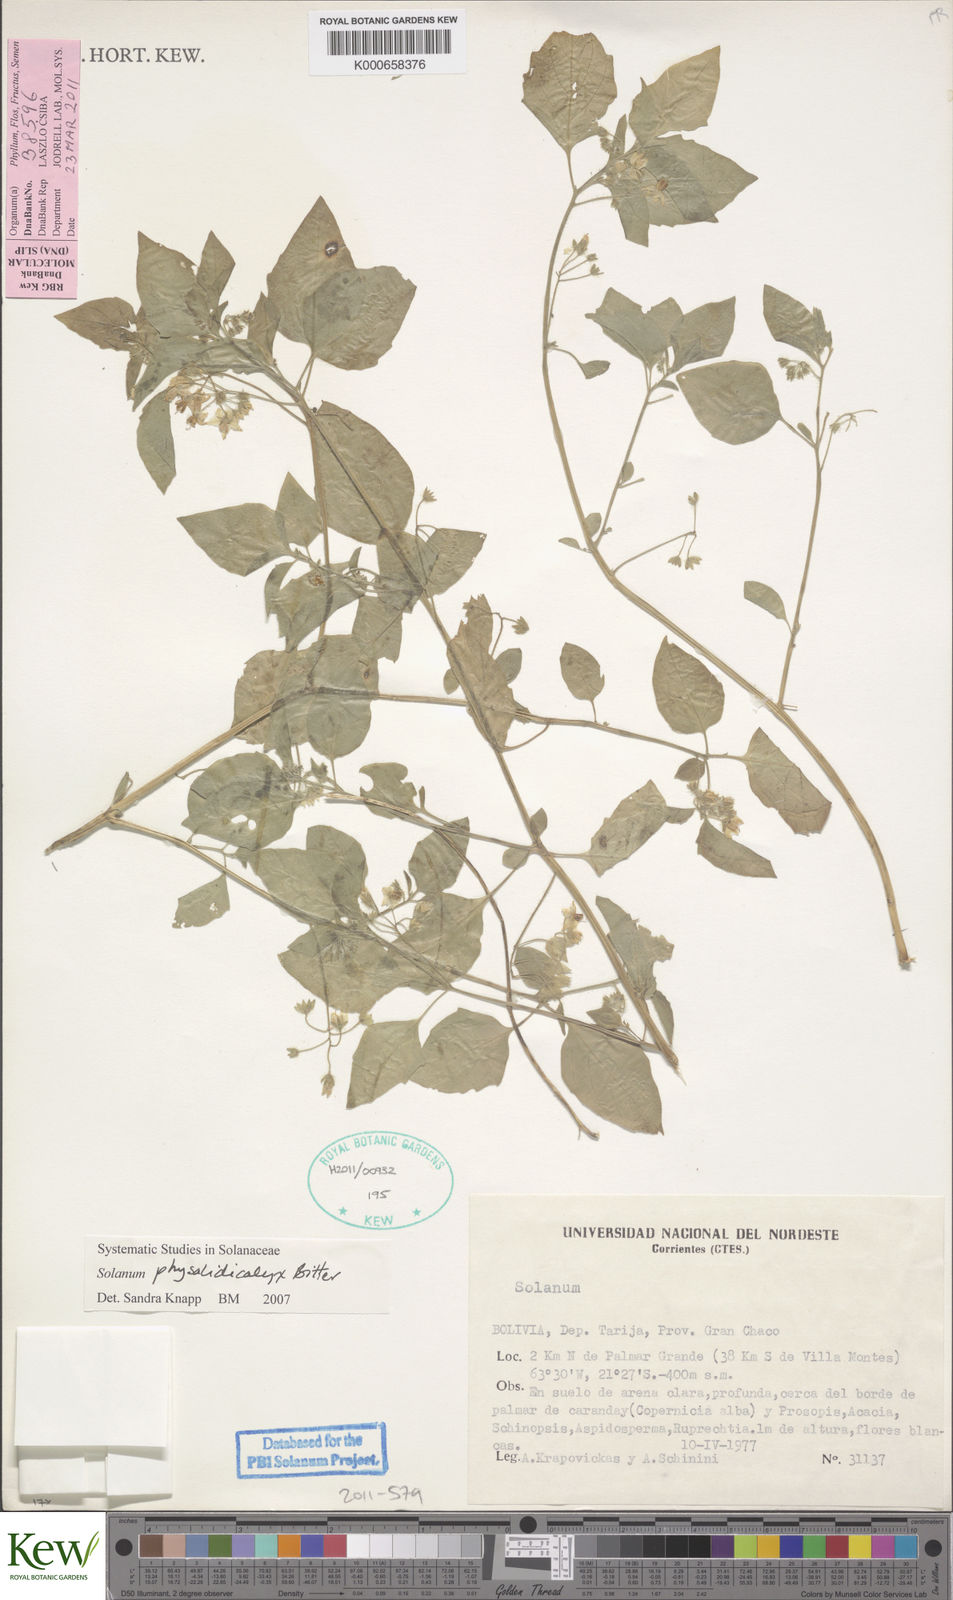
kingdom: Plantae
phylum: Tracheophyta
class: Magnoliopsida
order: Solanales
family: Solanaceae
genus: Solanum
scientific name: Solanum
